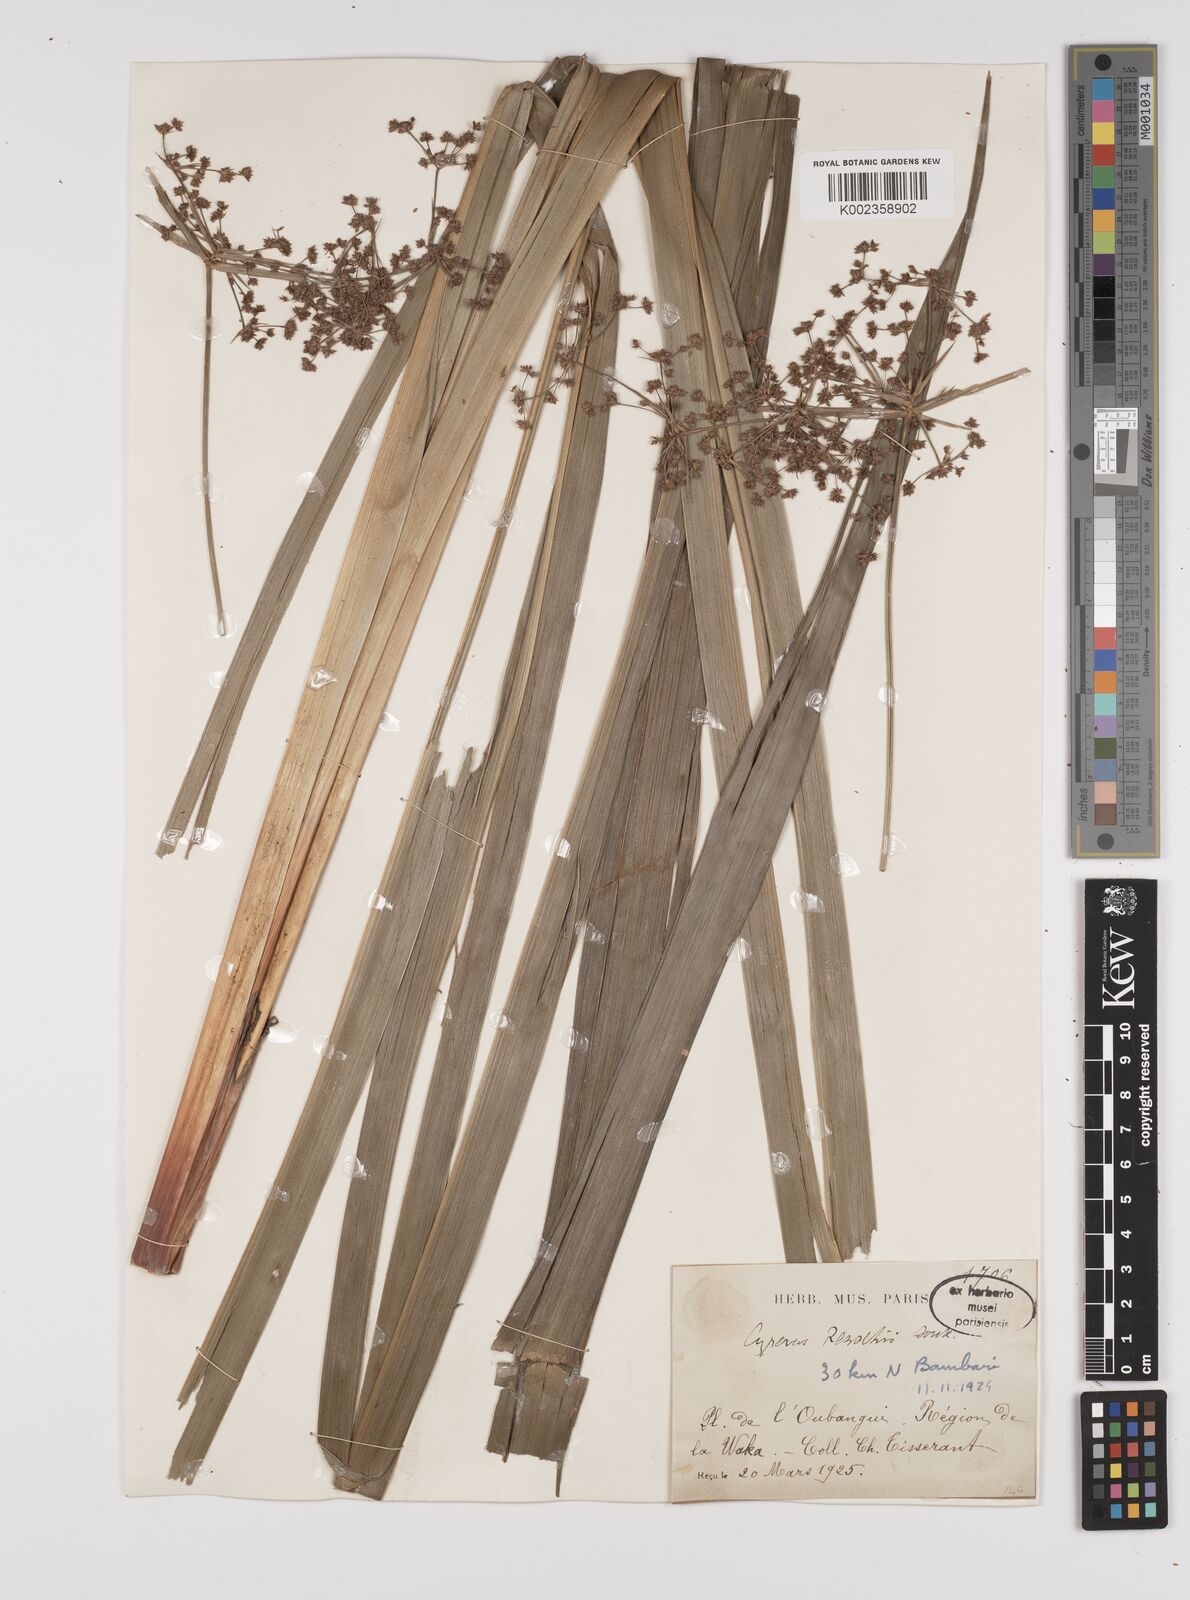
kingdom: Plantae
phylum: Tracheophyta
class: Liliopsida
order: Poales
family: Cyperaceae
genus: Cyperus
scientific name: Cyperus renschii
